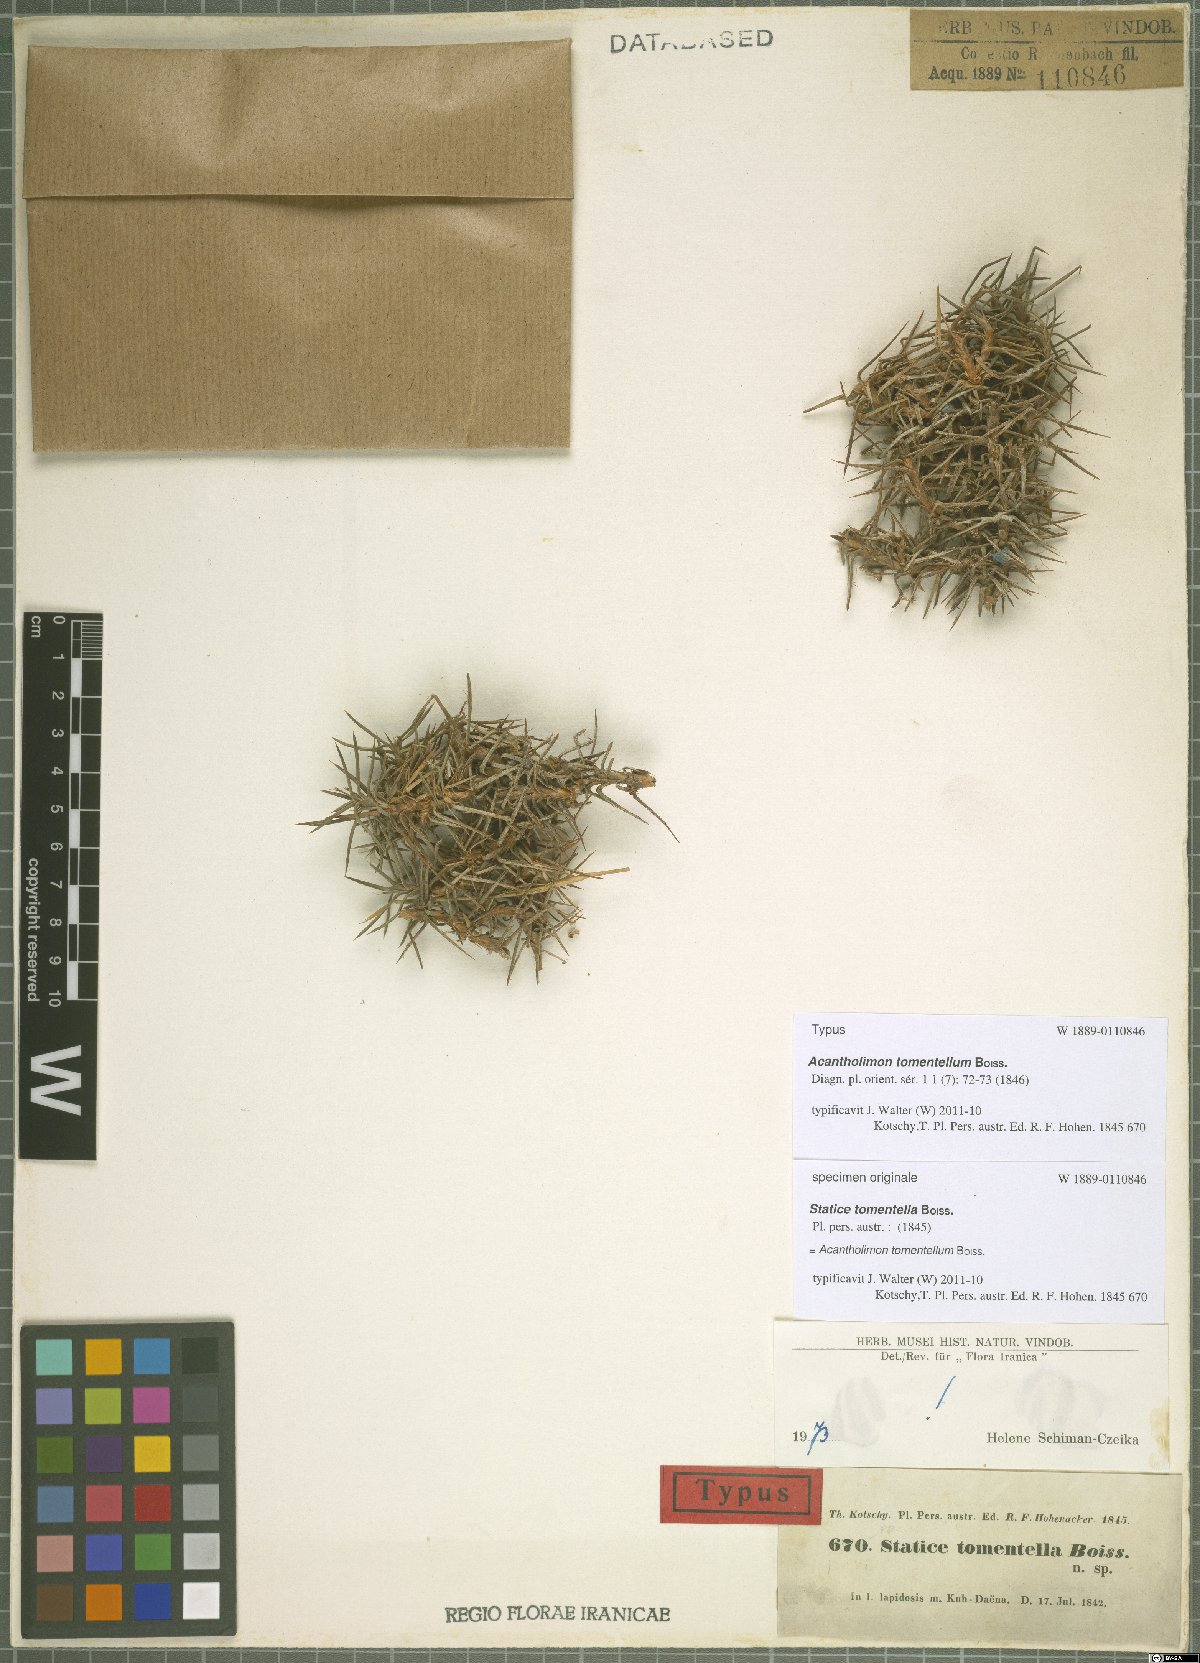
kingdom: Plantae
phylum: Tracheophyta
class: Magnoliopsida
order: Caryophyllales
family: Plumbaginaceae
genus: Acantholimon
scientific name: Acantholimon tomentellum
